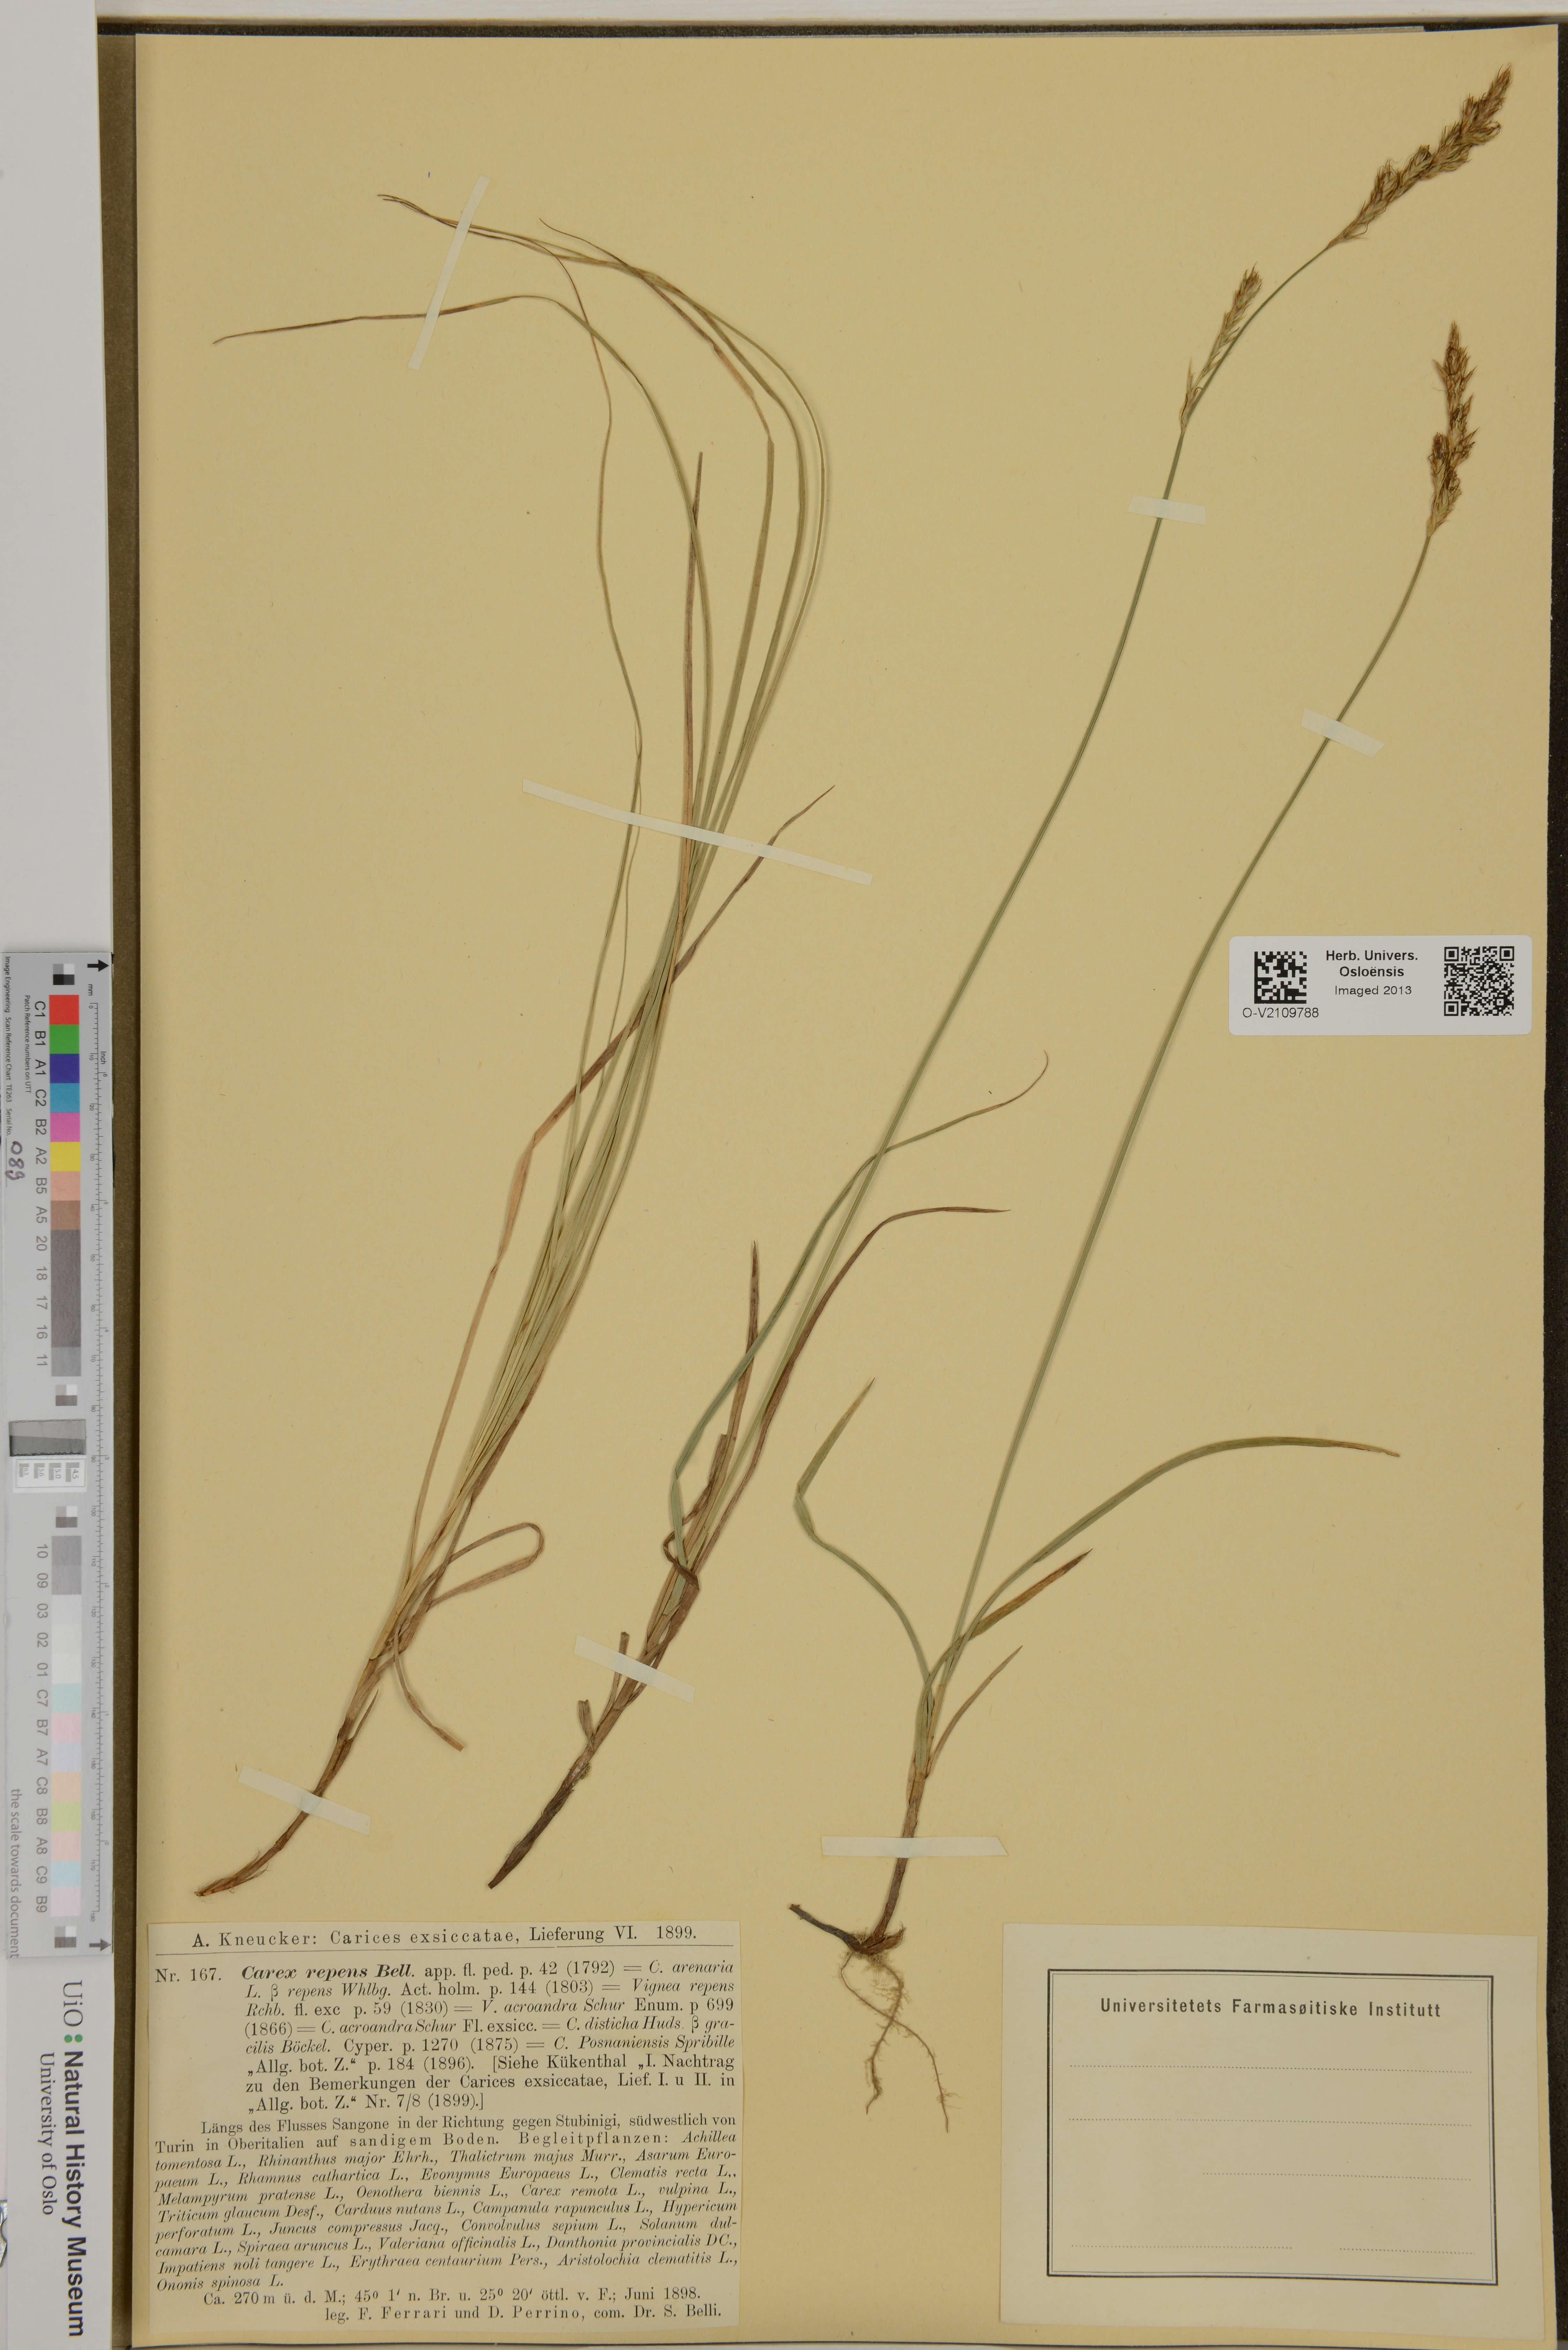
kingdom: Plantae
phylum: Tracheophyta
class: Liliopsida
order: Poales
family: Cyperaceae
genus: Carex
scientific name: Carex laxiculmis
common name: Spreading sedge
